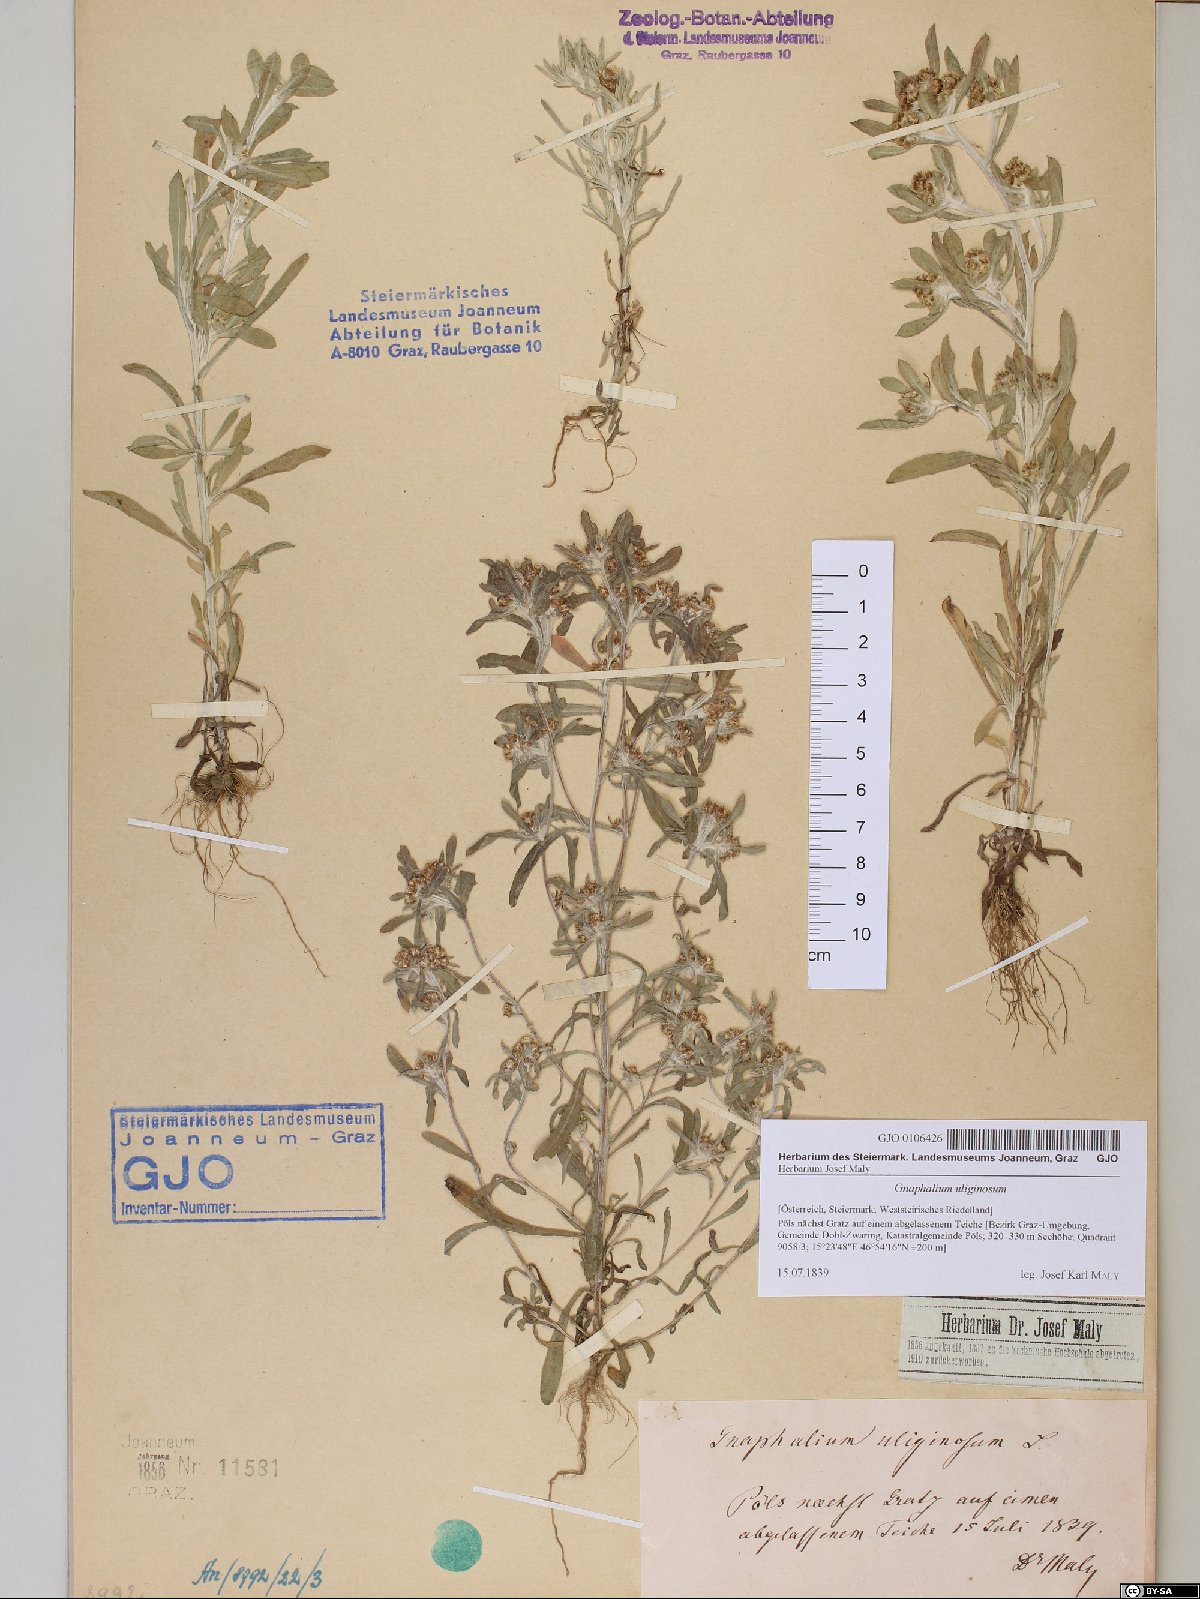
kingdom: Plantae
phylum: Tracheophyta
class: Magnoliopsida
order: Asterales
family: Asteraceae
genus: Gnaphalium
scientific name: Gnaphalium uliginosum
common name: Marsh cudweed
